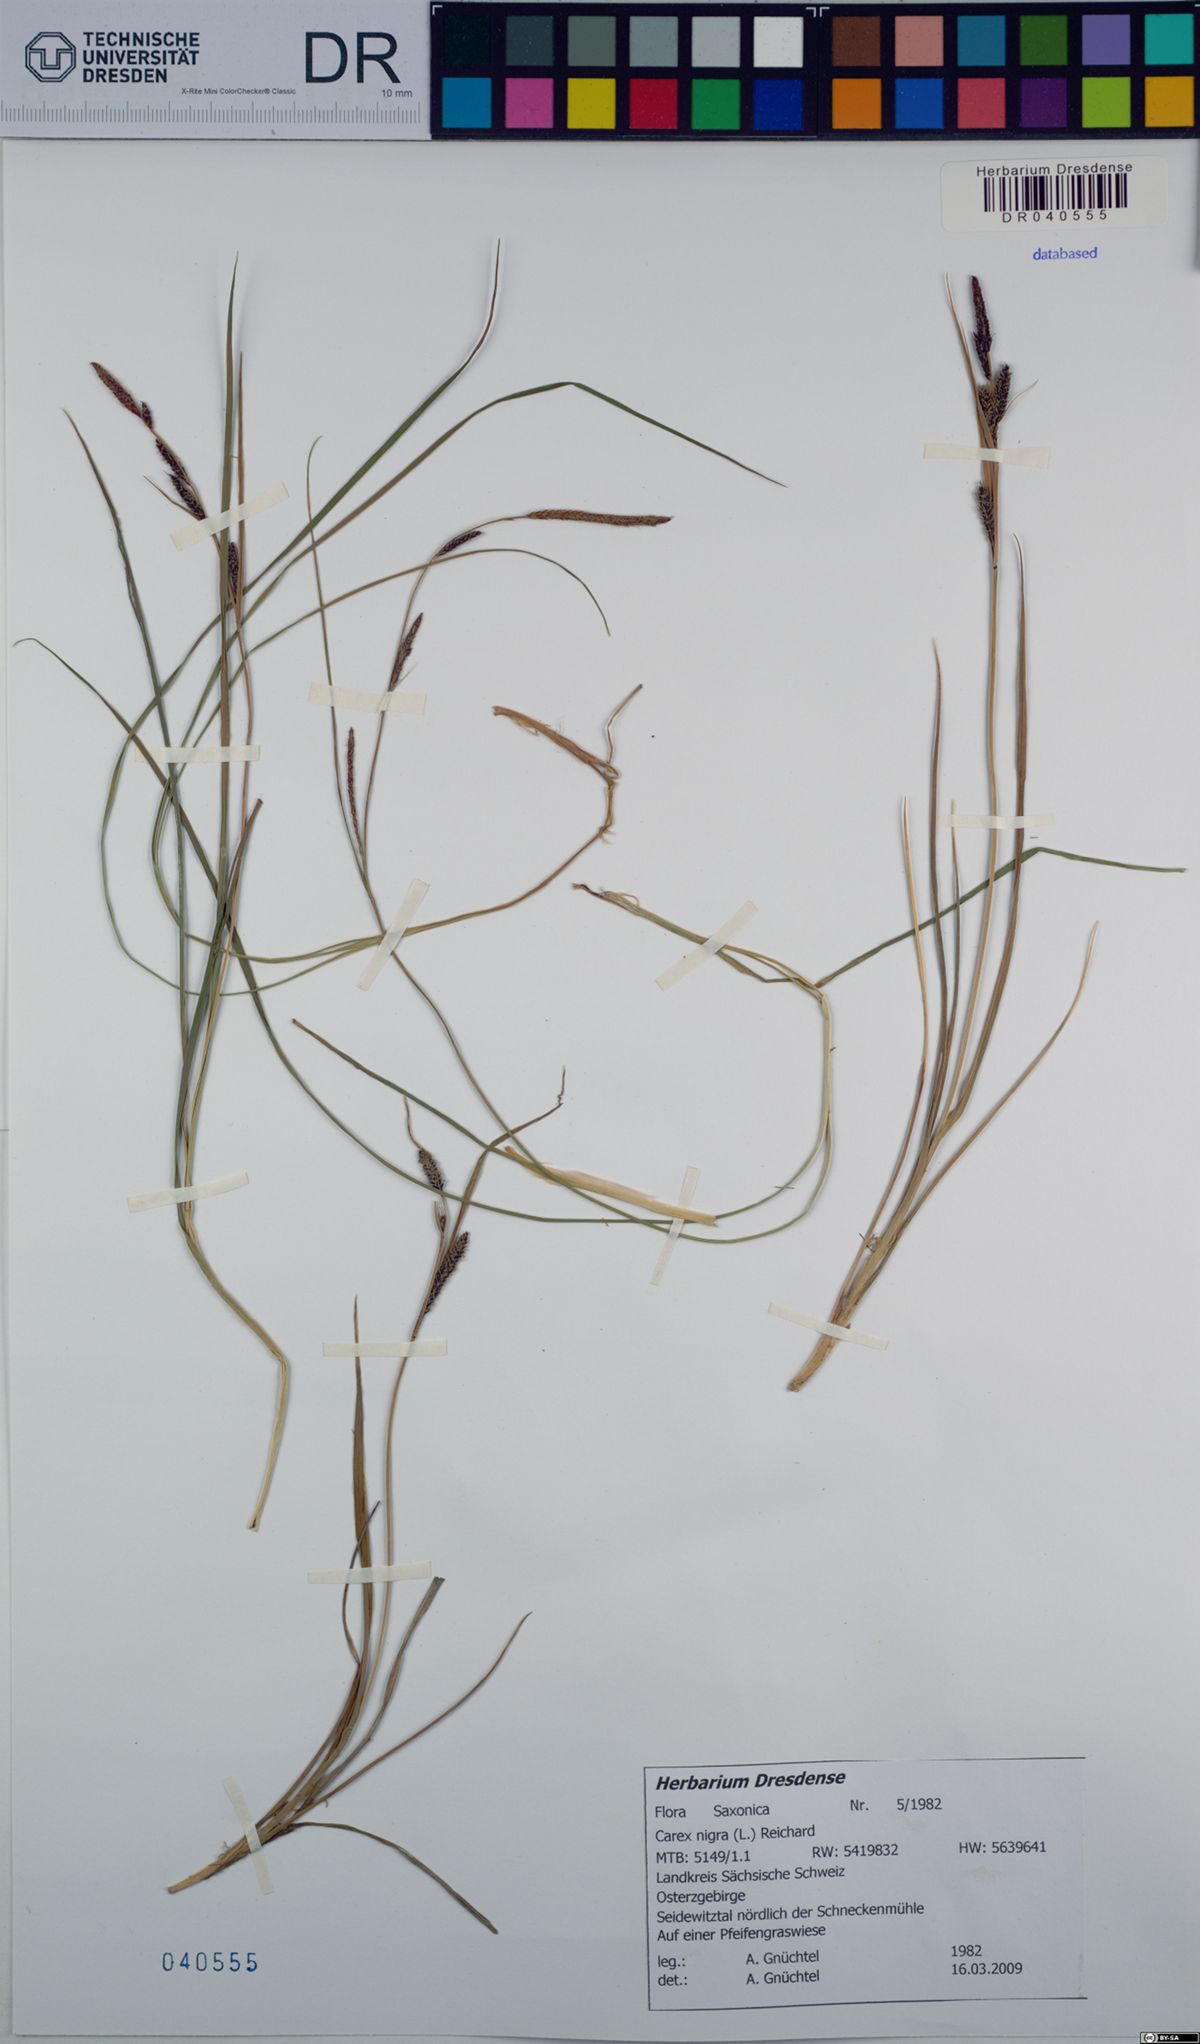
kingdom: Plantae
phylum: Tracheophyta
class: Liliopsida
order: Poales
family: Cyperaceae
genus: Carex
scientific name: Carex nigra
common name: Common sedge
